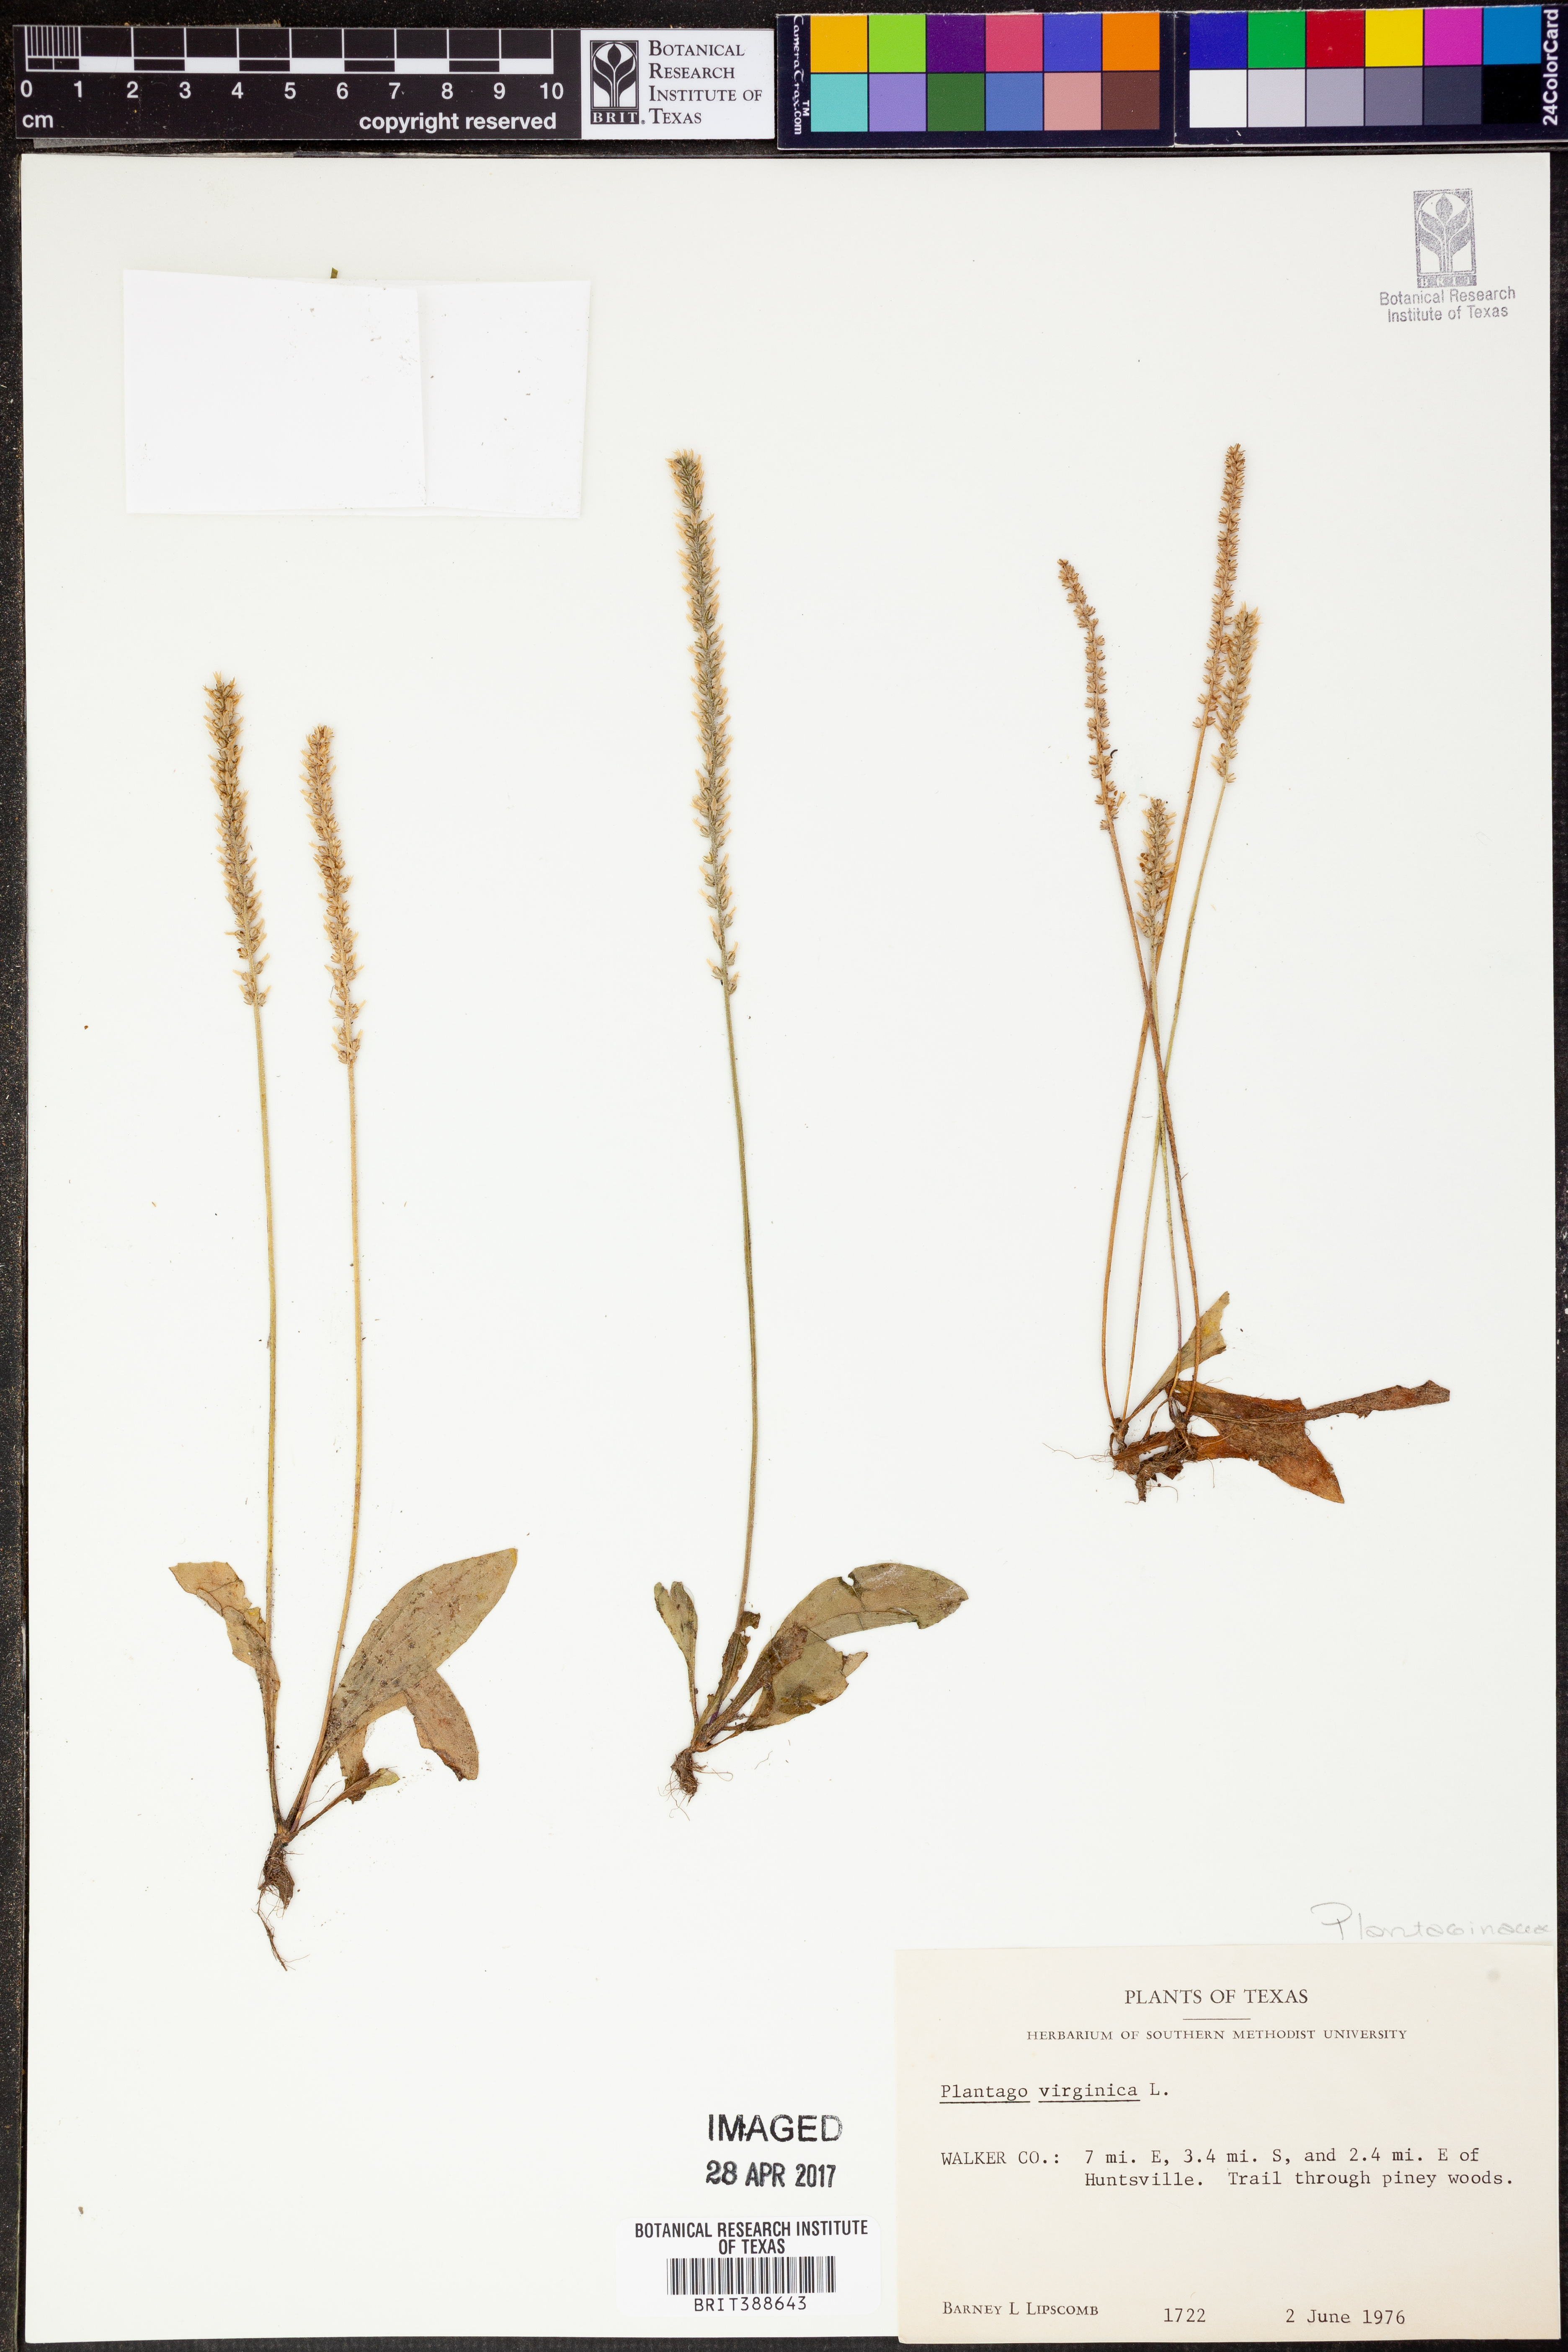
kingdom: Plantae
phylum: Tracheophyta
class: Magnoliopsida
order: Lamiales
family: Plantaginaceae
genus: Plantago
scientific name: Plantago virginica
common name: Hoary plantain
